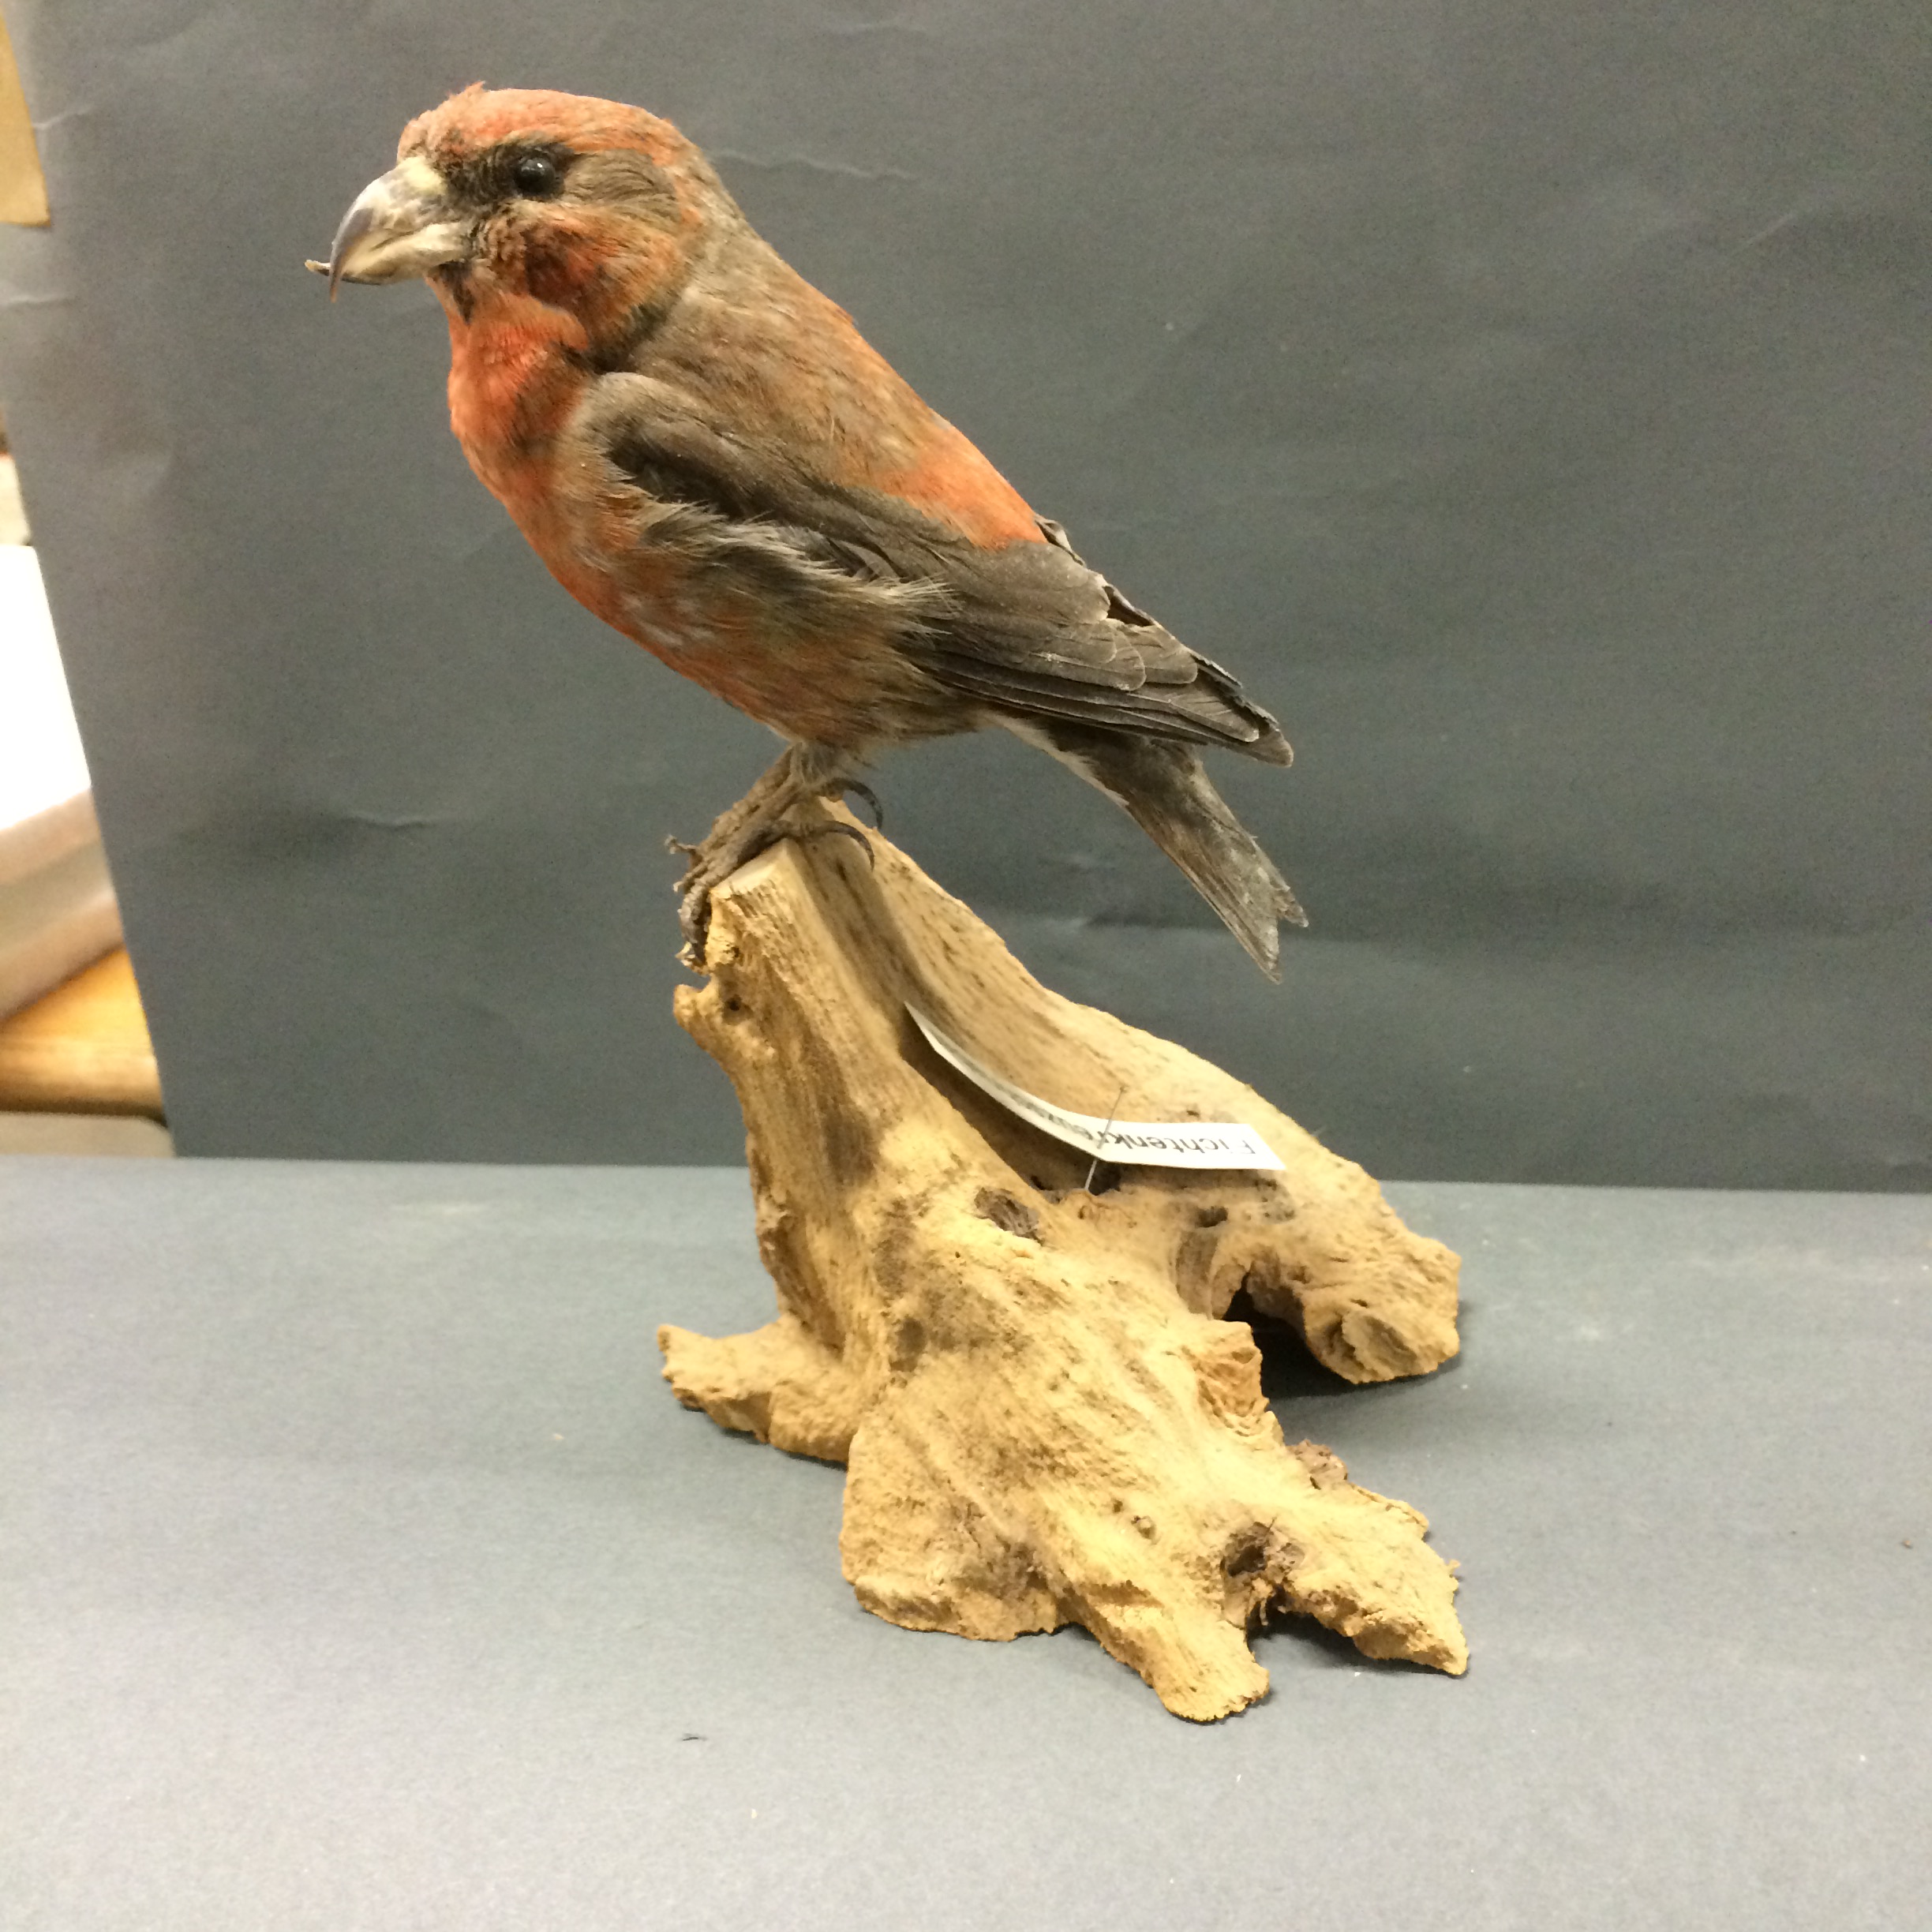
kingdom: Animalia
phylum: Chordata
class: Aves
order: Passeriformes
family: Fringillidae
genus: Loxia
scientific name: Loxia curvirostra
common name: Red crossbill
